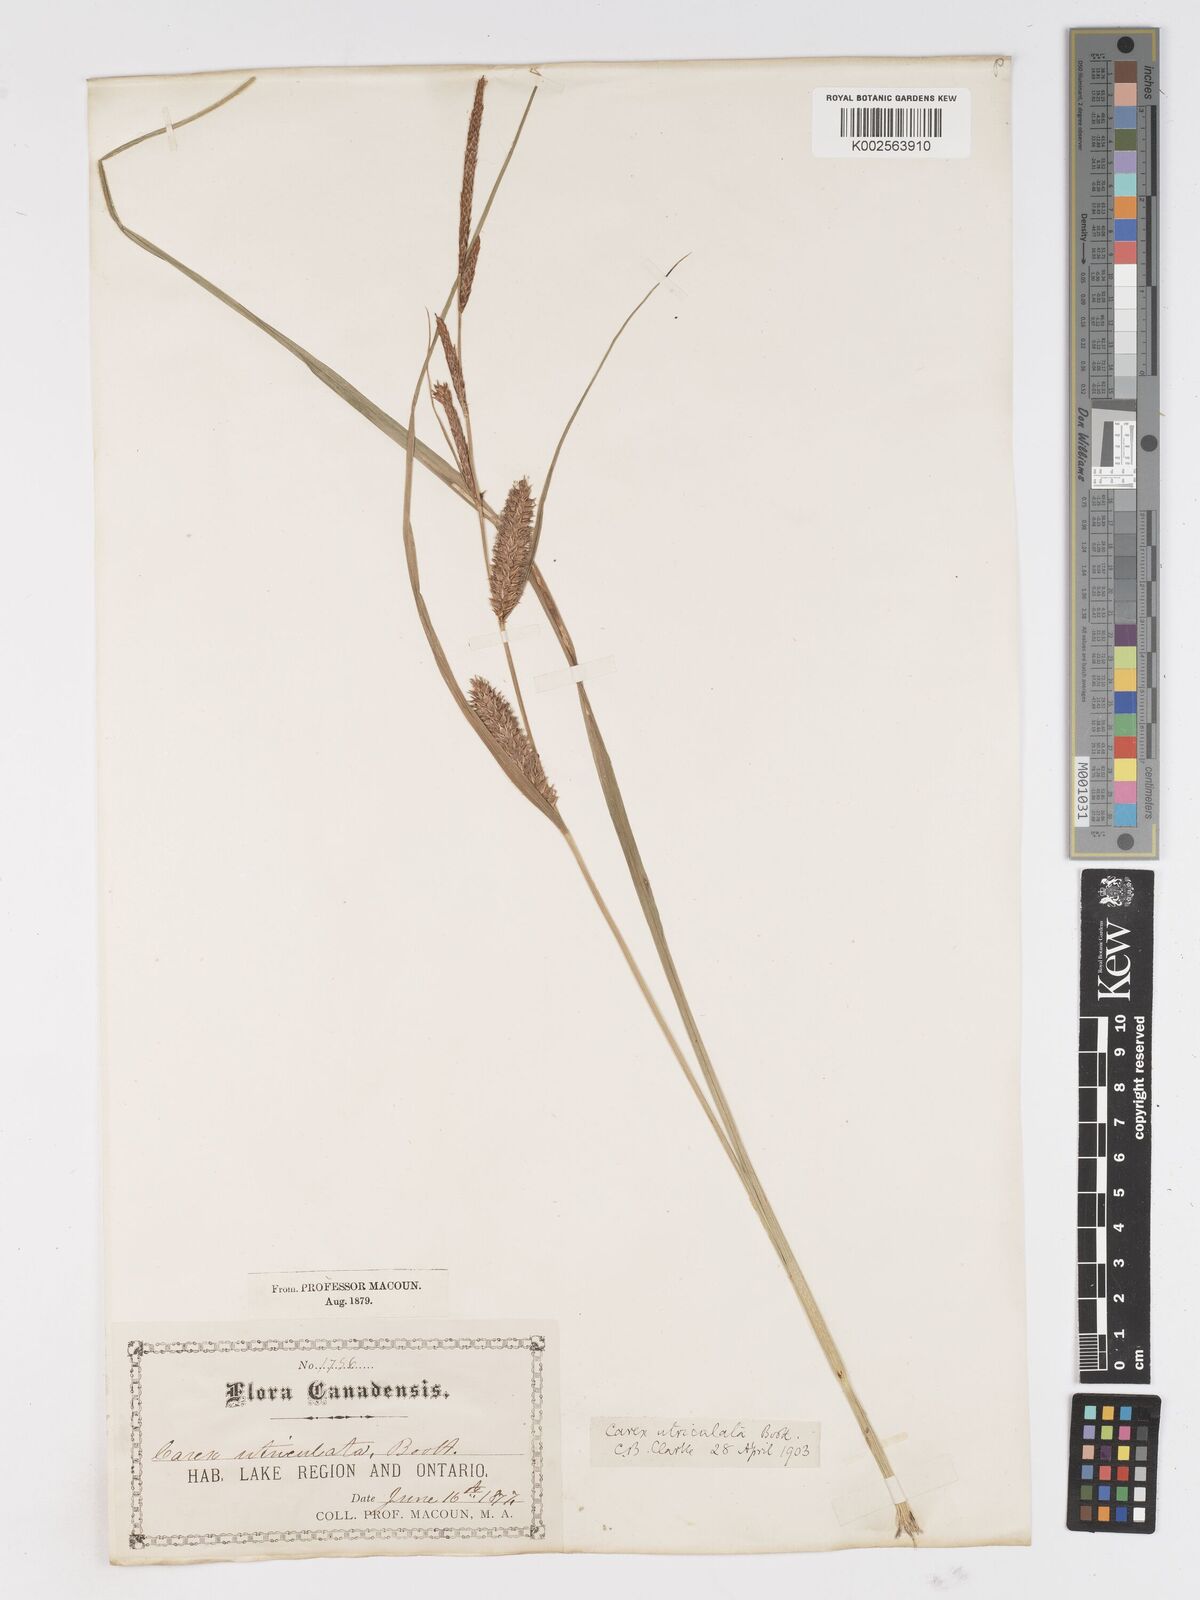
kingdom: Plantae
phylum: Tracheophyta
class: Liliopsida
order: Poales
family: Cyperaceae
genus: Carex
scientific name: Carex rostrata
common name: Bottle sedge
